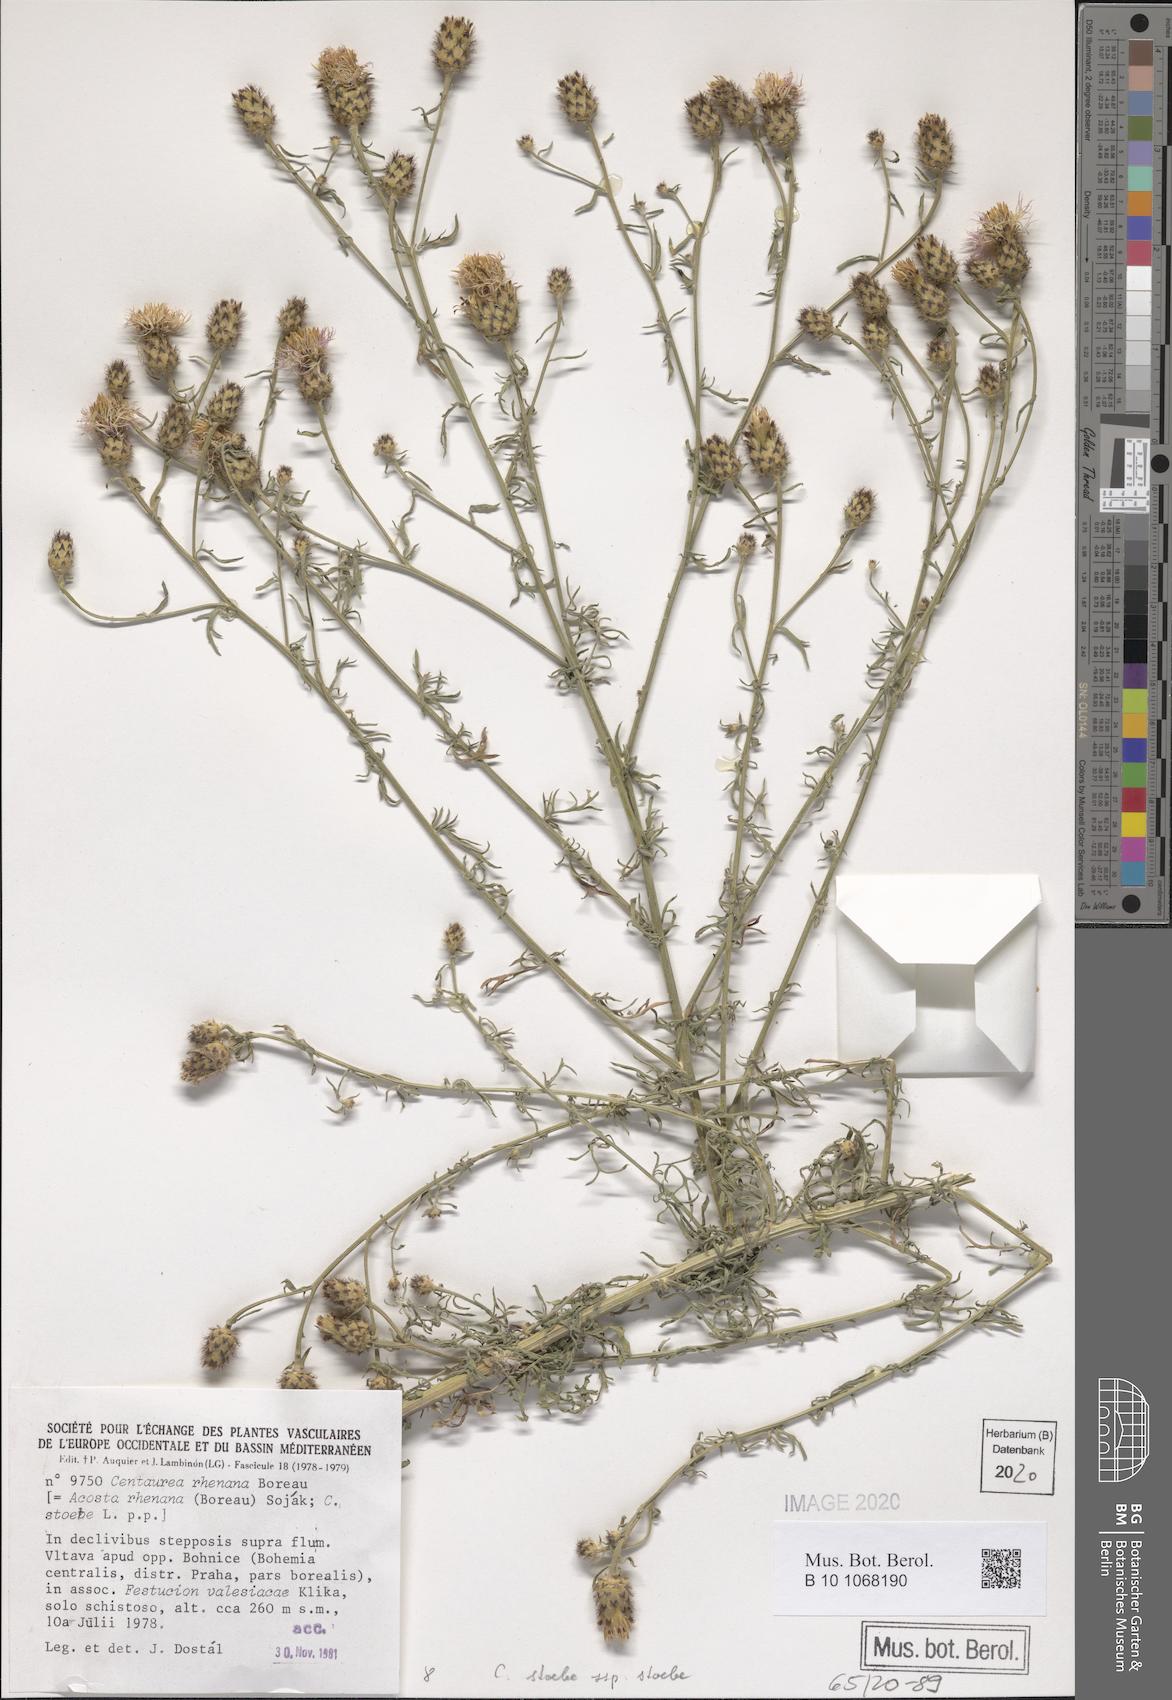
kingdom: Plantae
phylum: Tracheophyta
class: Magnoliopsida
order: Asterales
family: Asteraceae
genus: Centaurea
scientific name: Centaurea stoebe
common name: Spotted knapweed
